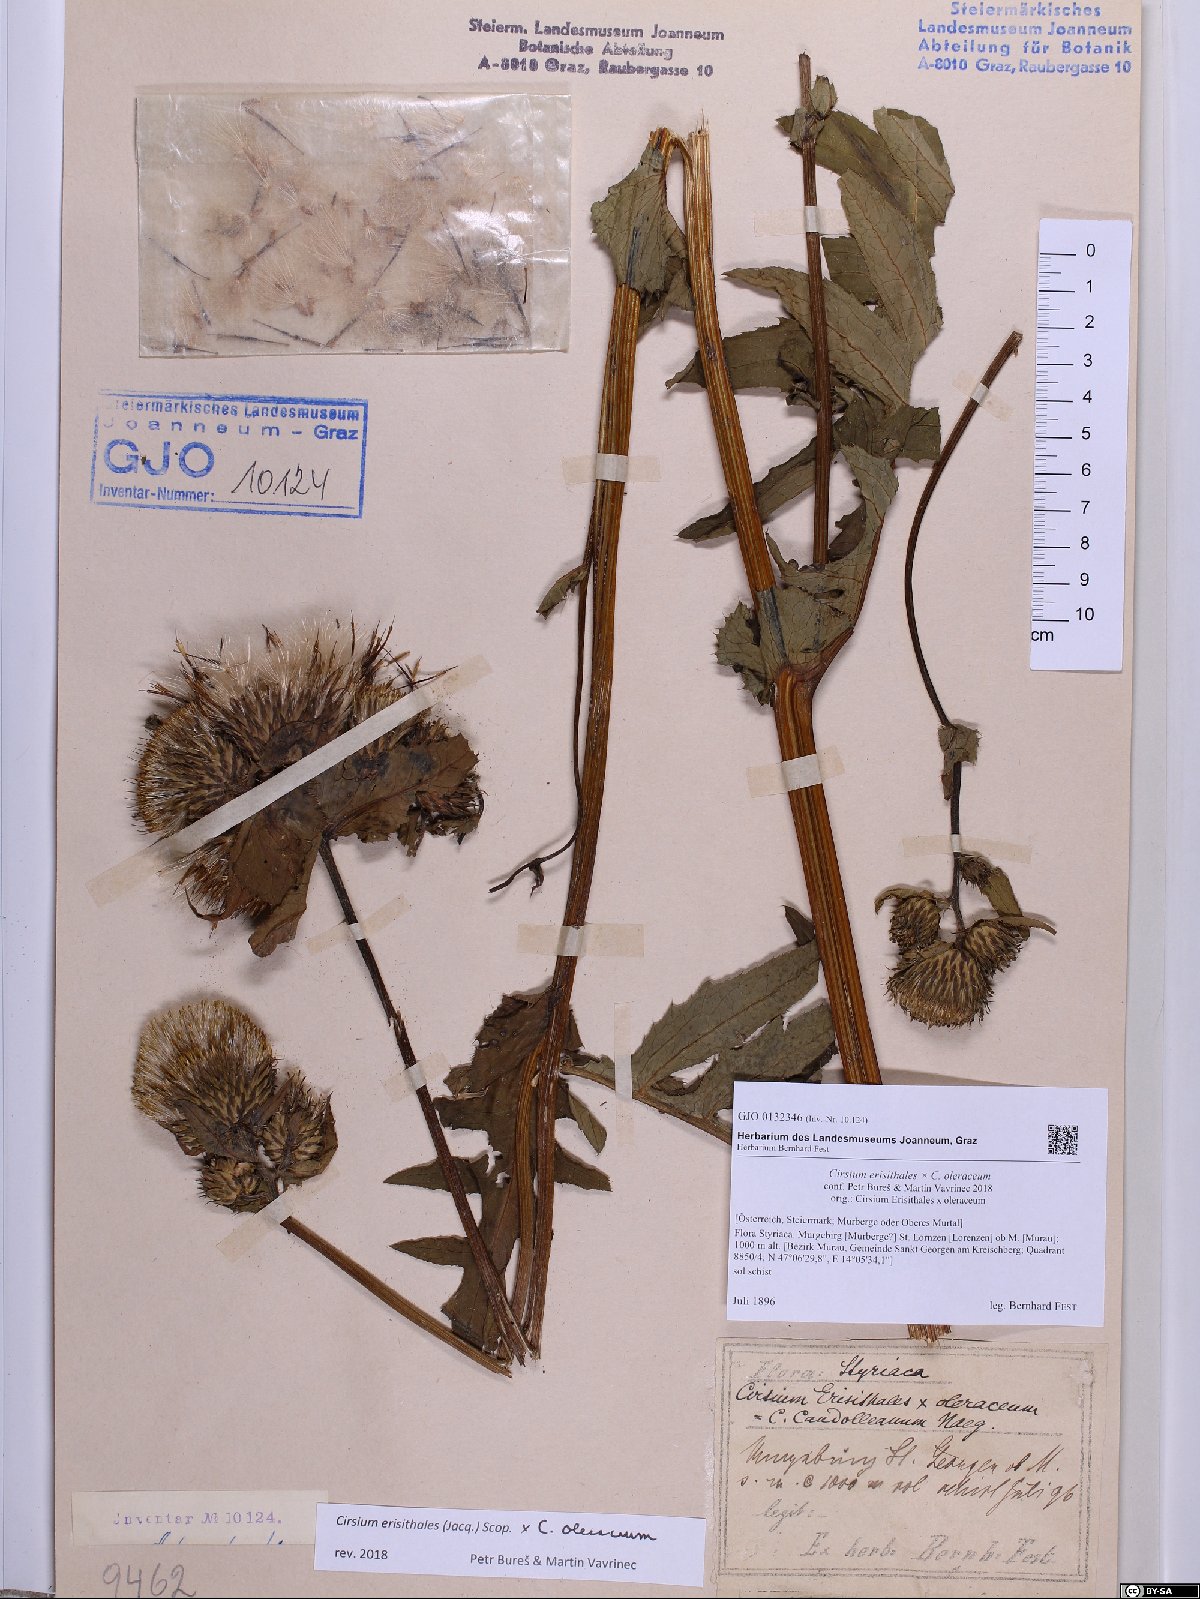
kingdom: Plantae
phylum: Tracheophyta
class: Magnoliopsida
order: Asterales
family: Asteraceae
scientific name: Asteraceae
